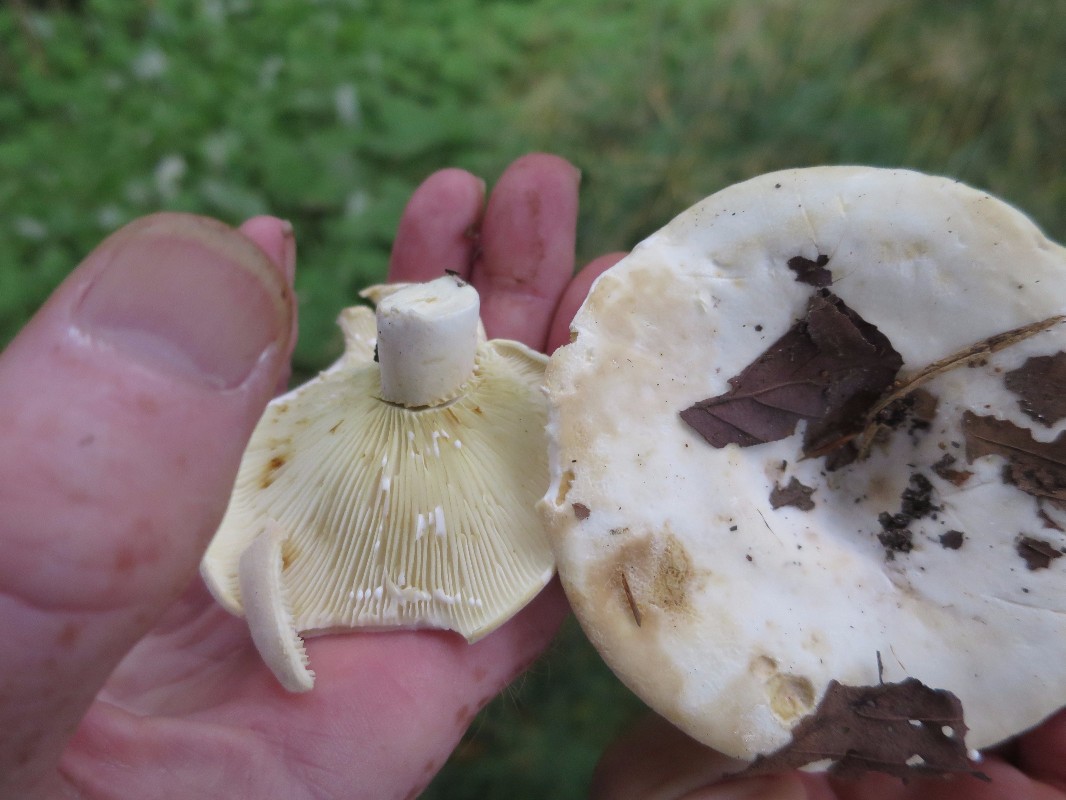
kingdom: Fungi
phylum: Basidiomycota
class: Agaricomycetes
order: Russulales
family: Russulaceae
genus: Lactifluus
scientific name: Lactifluus vellereus
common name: hvidfiltet mælkehat
